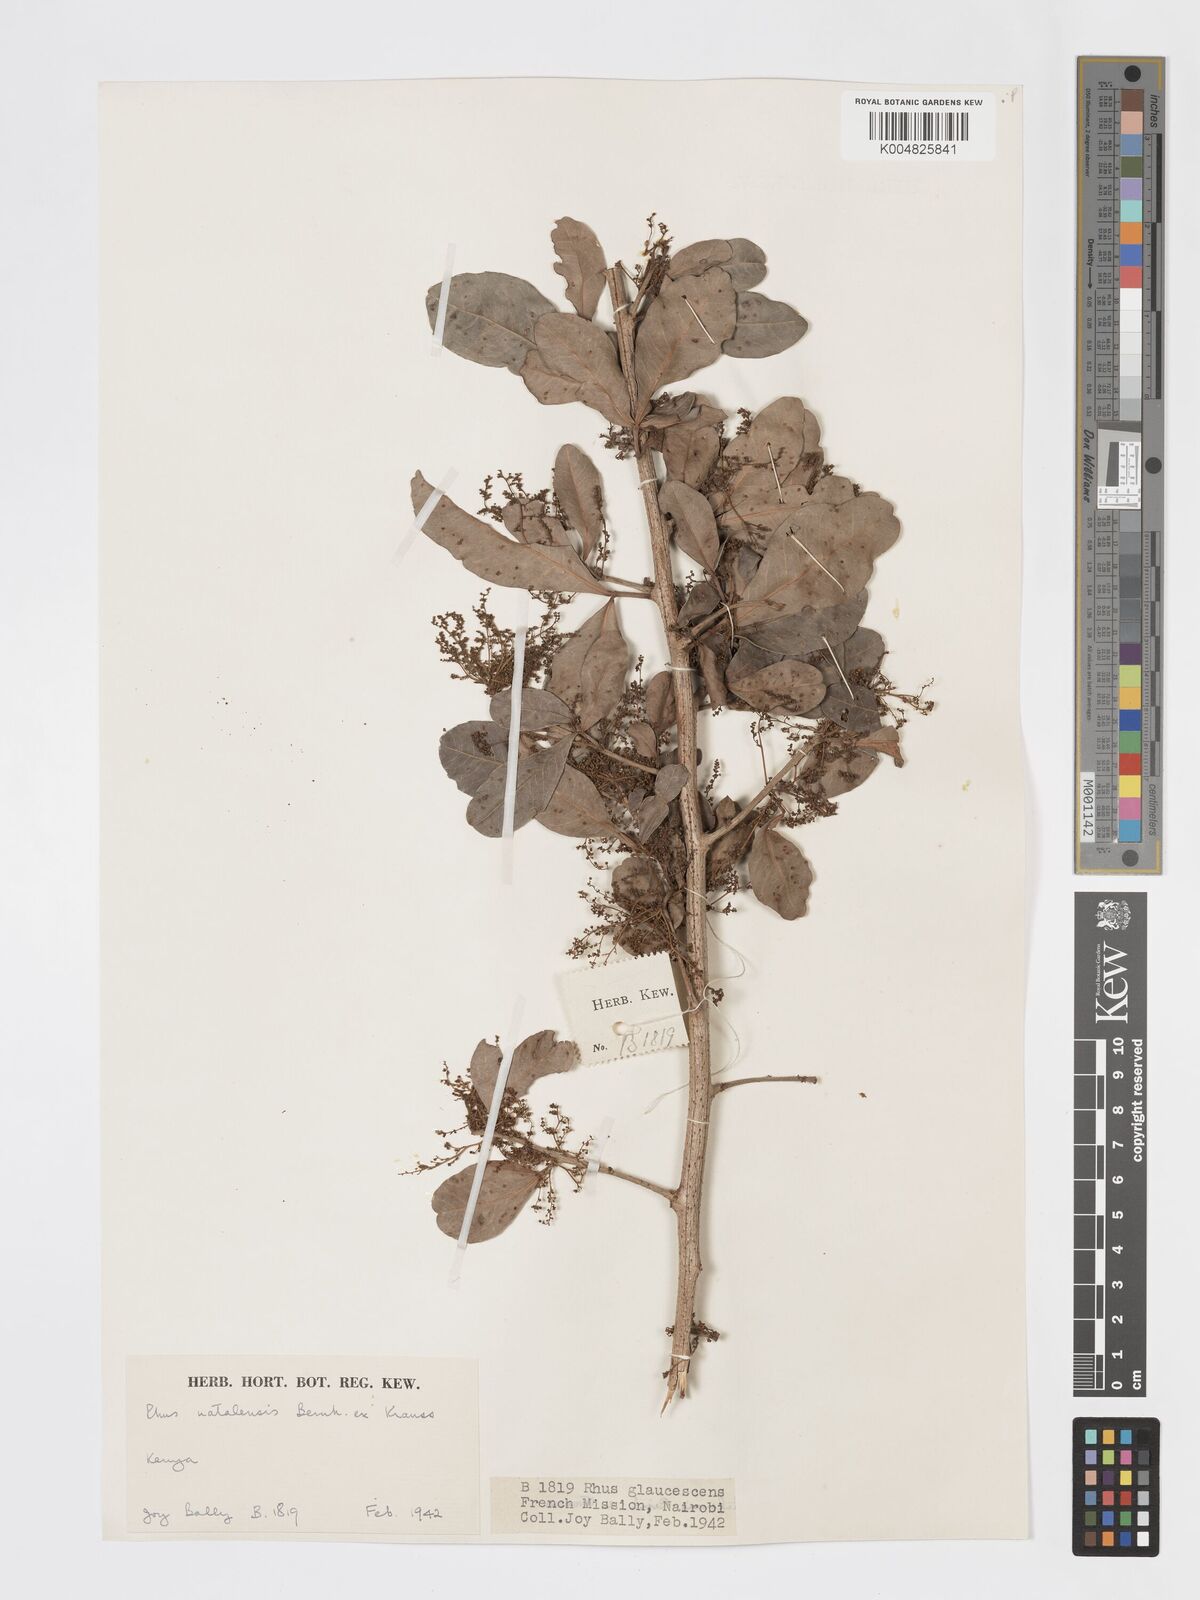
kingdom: Plantae
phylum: Tracheophyta
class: Magnoliopsida
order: Sapindales
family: Anacardiaceae
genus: Searsia
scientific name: Searsia natalensis
